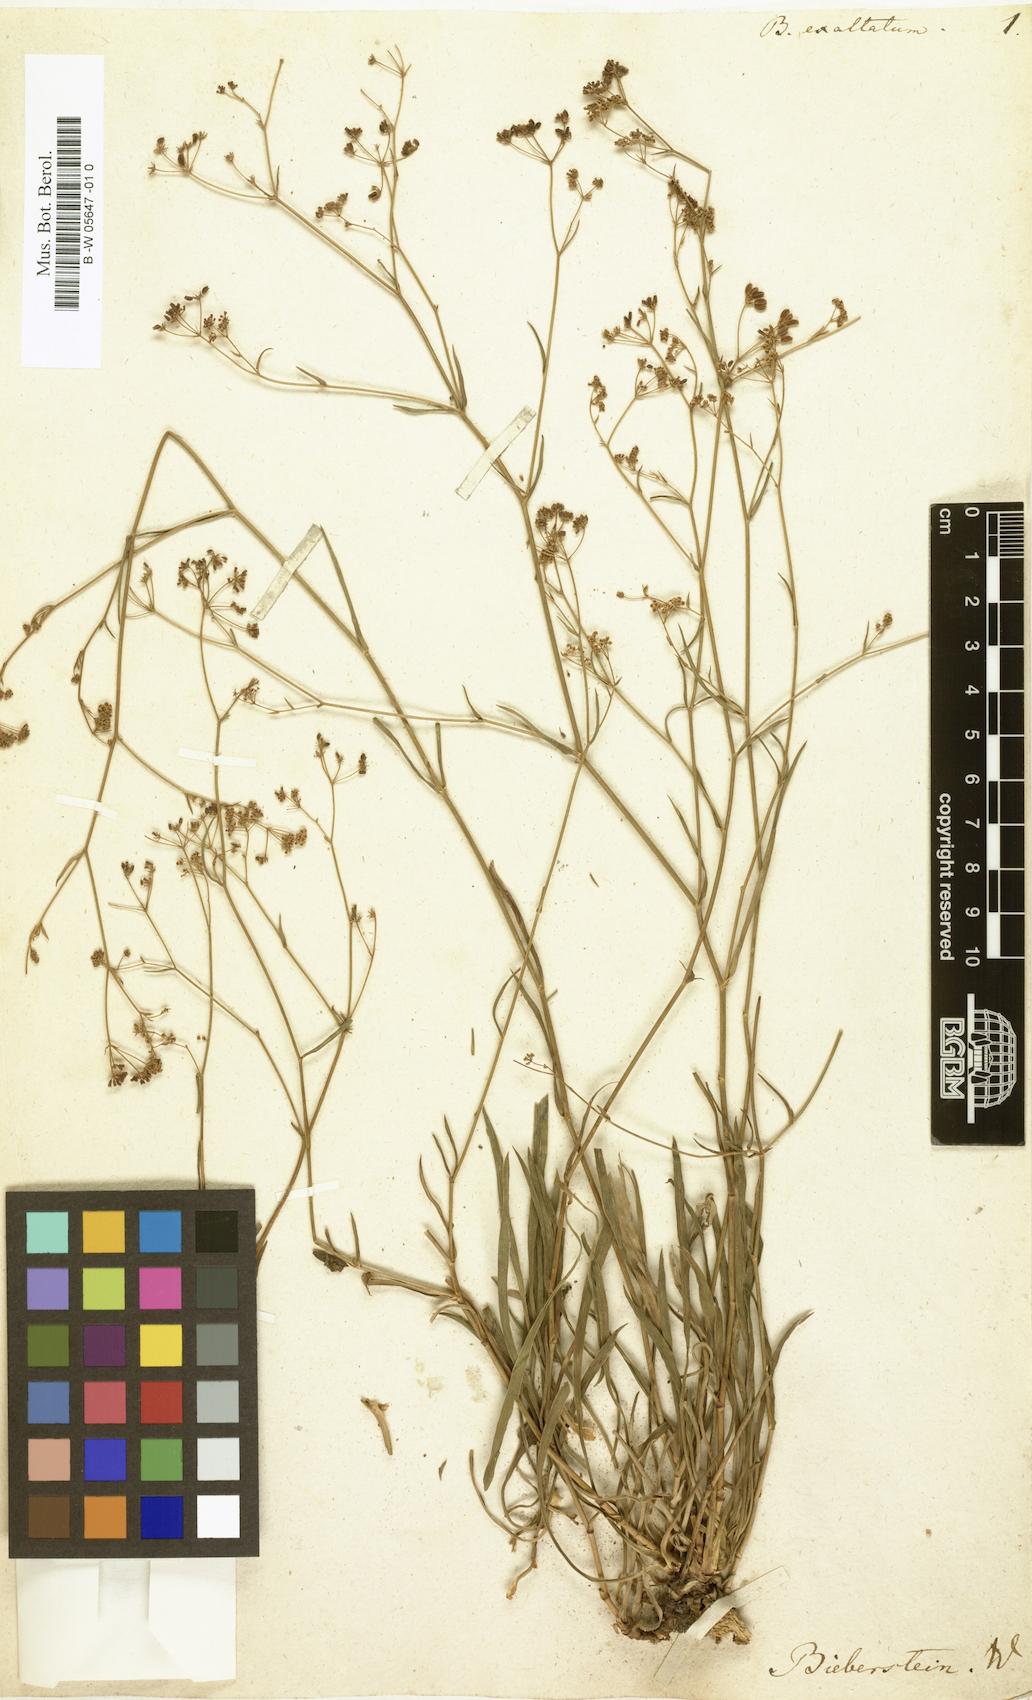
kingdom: Plantae
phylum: Tracheophyta
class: Magnoliopsida
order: Apiales
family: Apiaceae
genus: Bupleurum
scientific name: Bupleurum exaltatum
